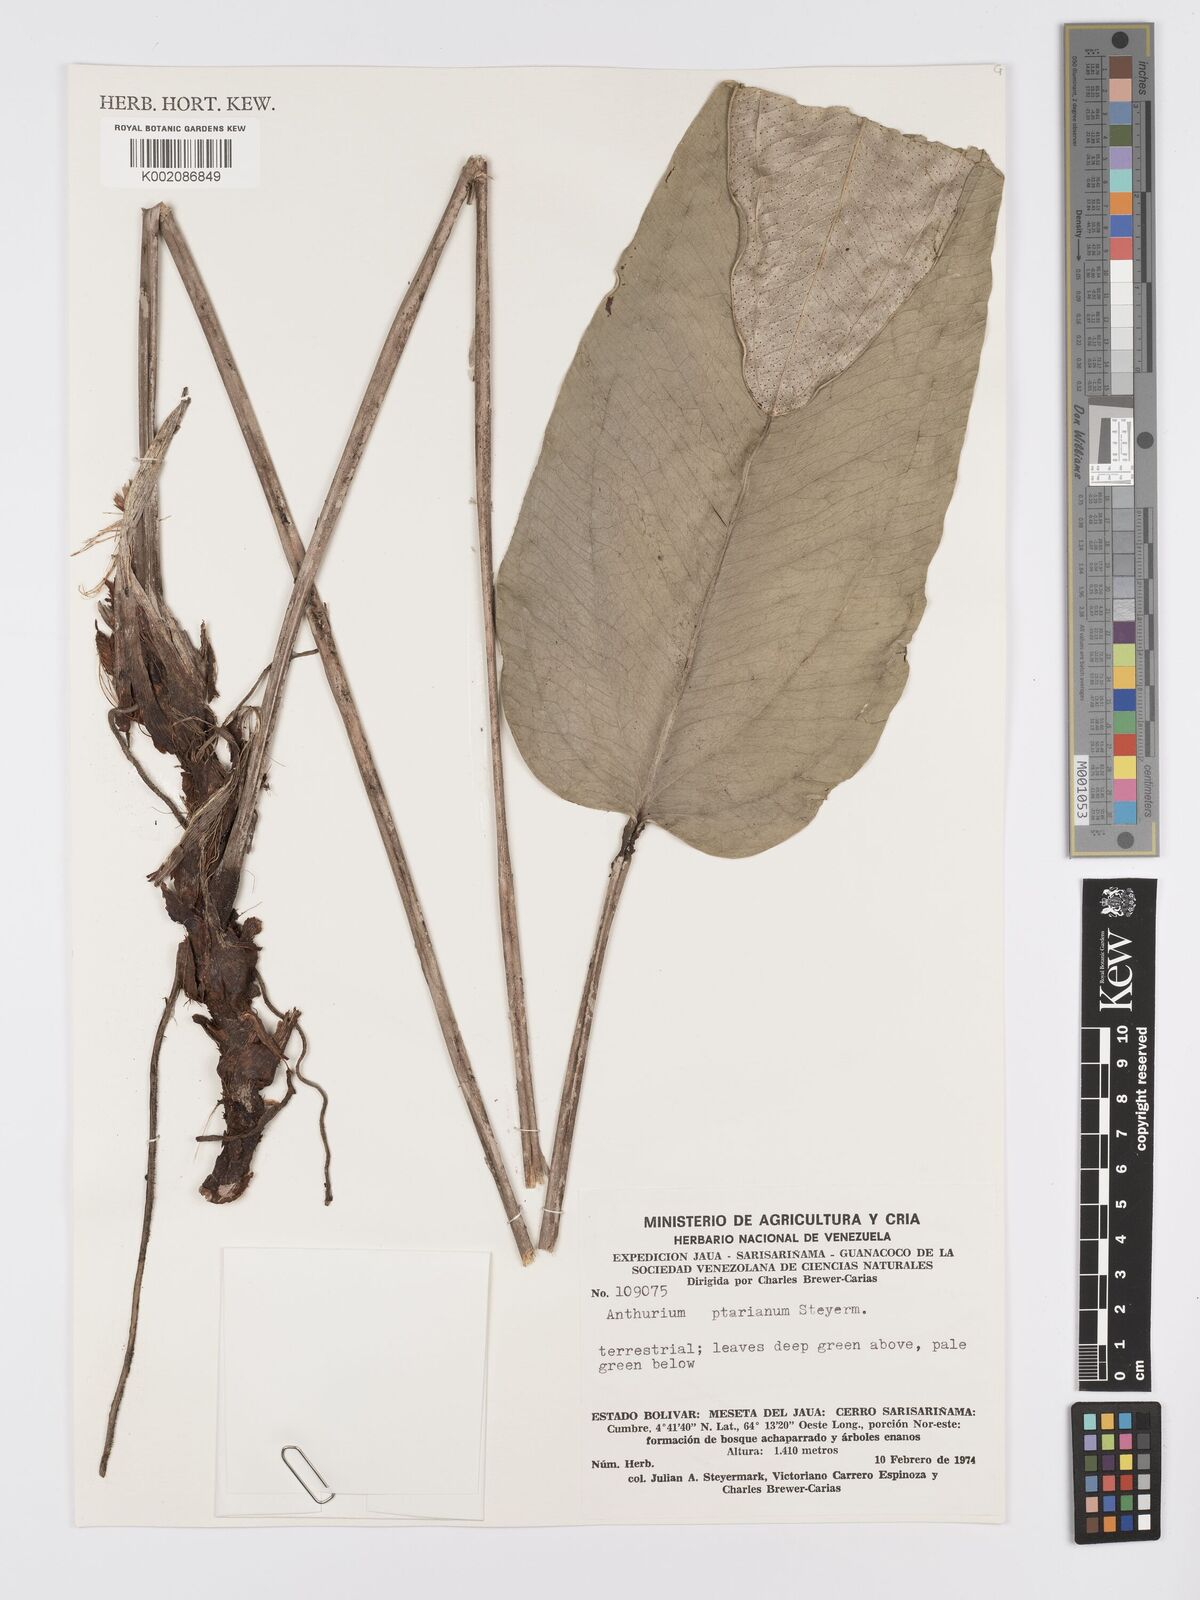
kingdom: Plantae
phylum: Tracheophyta
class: Liliopsida
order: Alismatales
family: Araceae
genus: Anthurium
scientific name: Anthurium ptarianum
